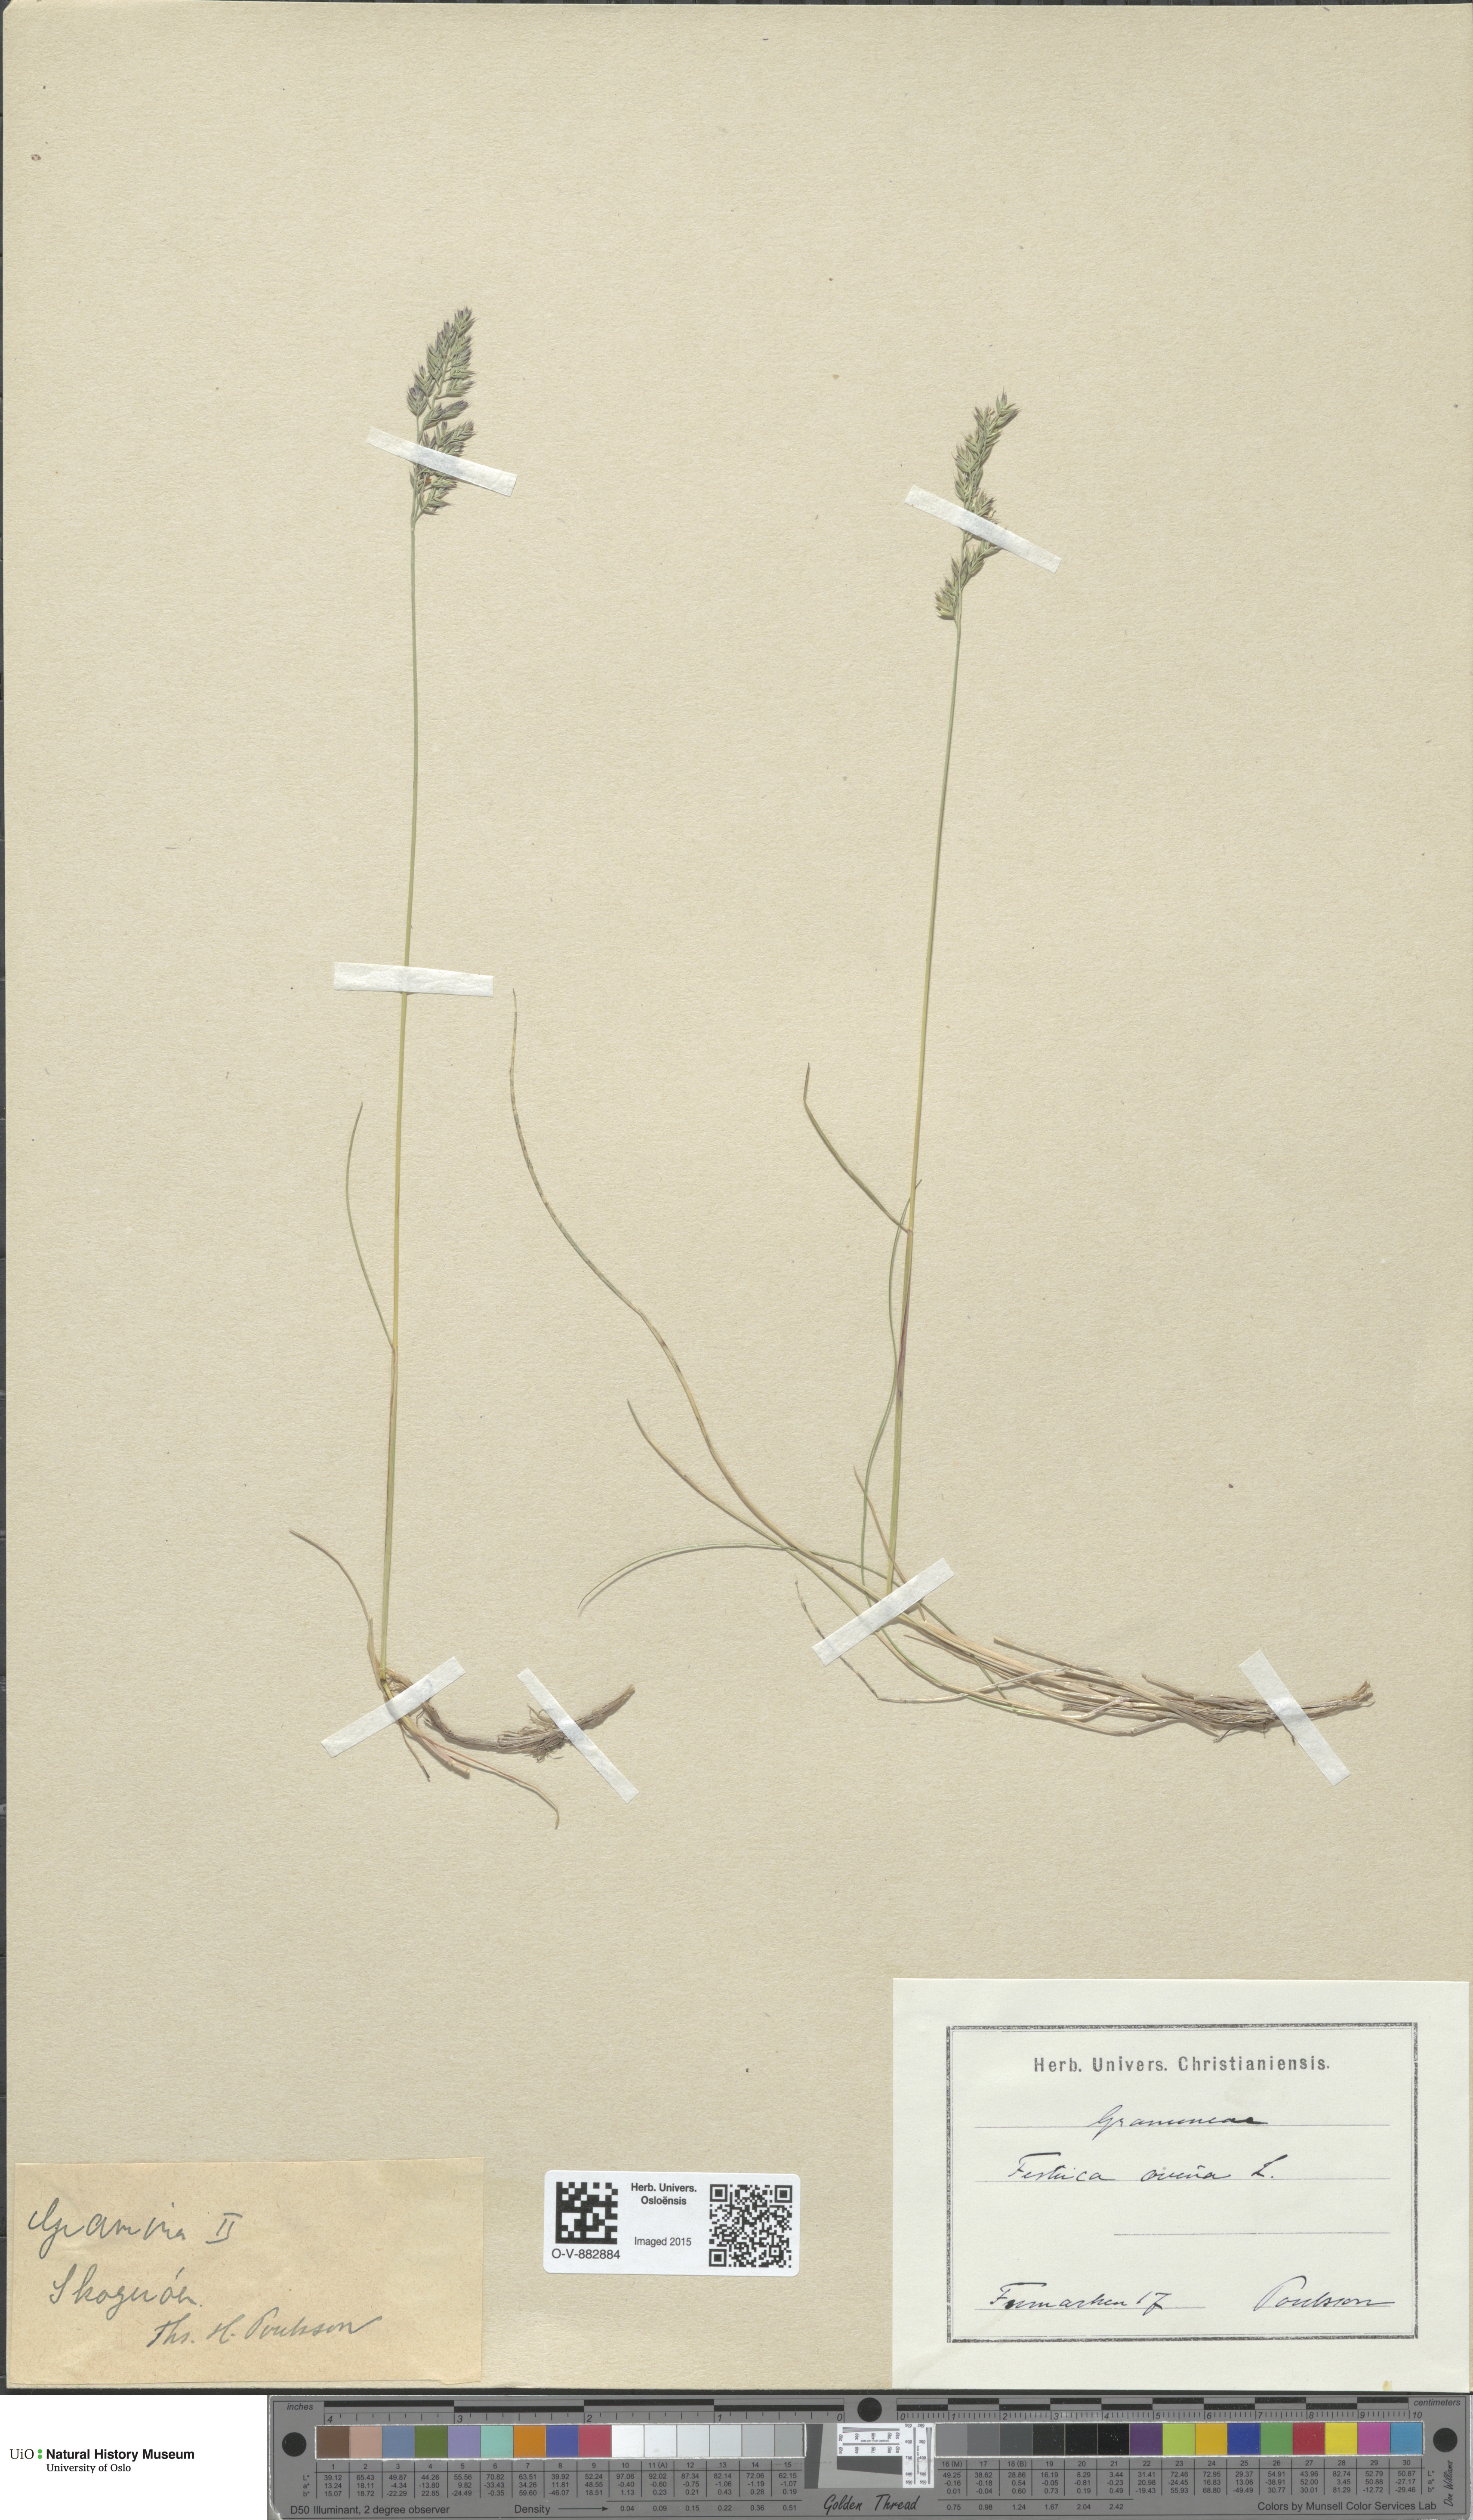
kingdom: Plantae
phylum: Tracheophyta
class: Liliopsida
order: Poales
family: Poaceae
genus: Festuca
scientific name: Festuca ovina
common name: Sheep fescue
